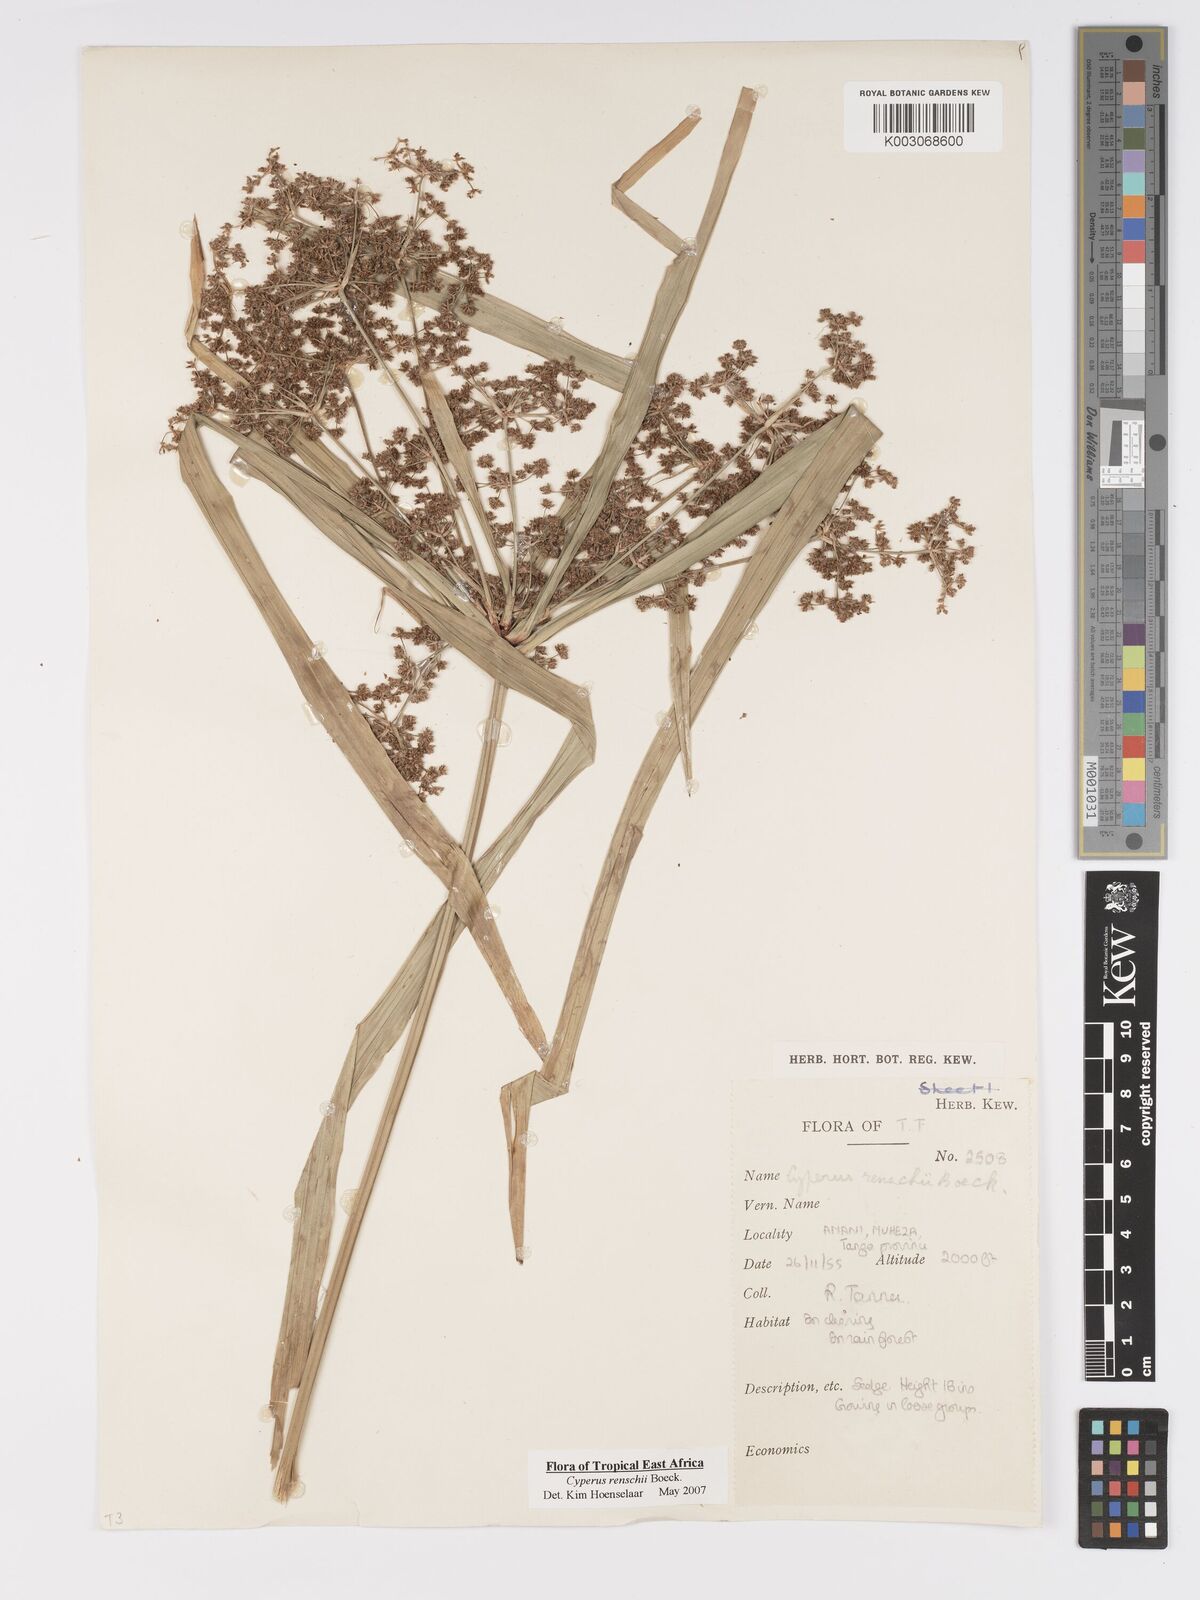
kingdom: Plantae
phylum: Tracheophyta
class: Liliopsida
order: Poales
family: Cyperaceae
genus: Cyperus
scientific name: Cyperus renschii
